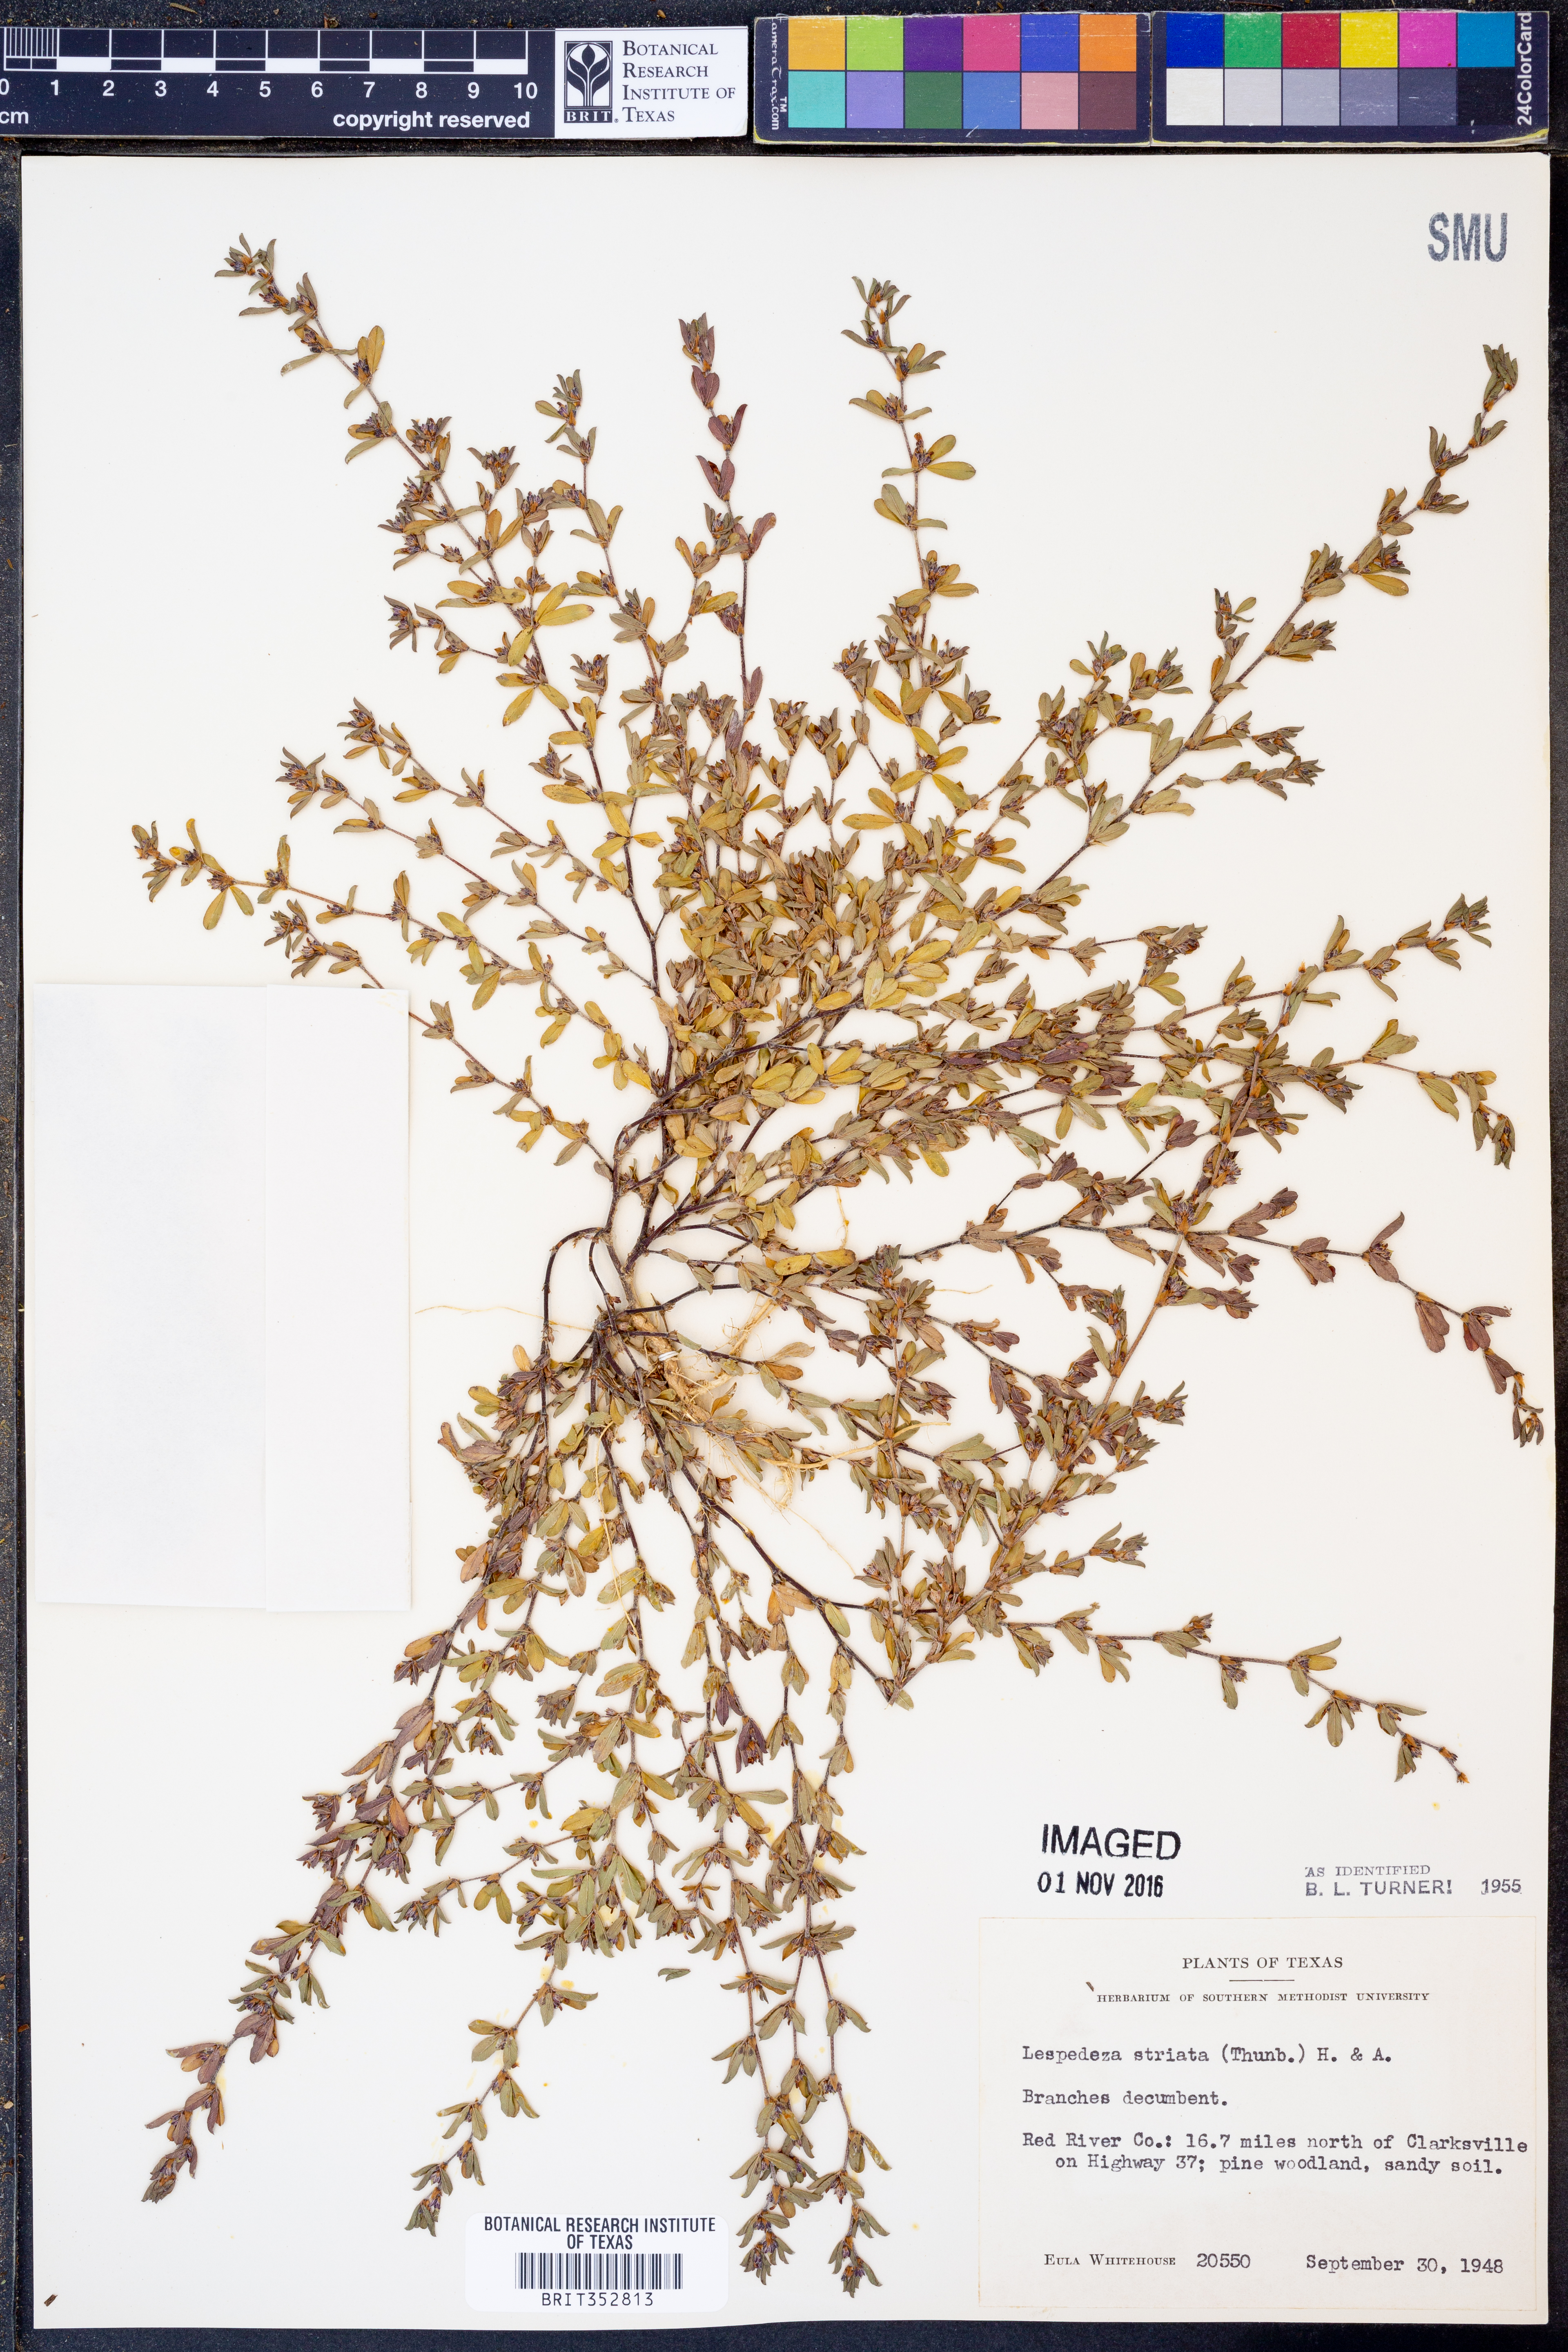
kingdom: Plantae
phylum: Tracheophyta
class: Magnoliopsida
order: Fabales
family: Fabaceae
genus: Kummerowia
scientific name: Kummerowia striata
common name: Japanese clover
